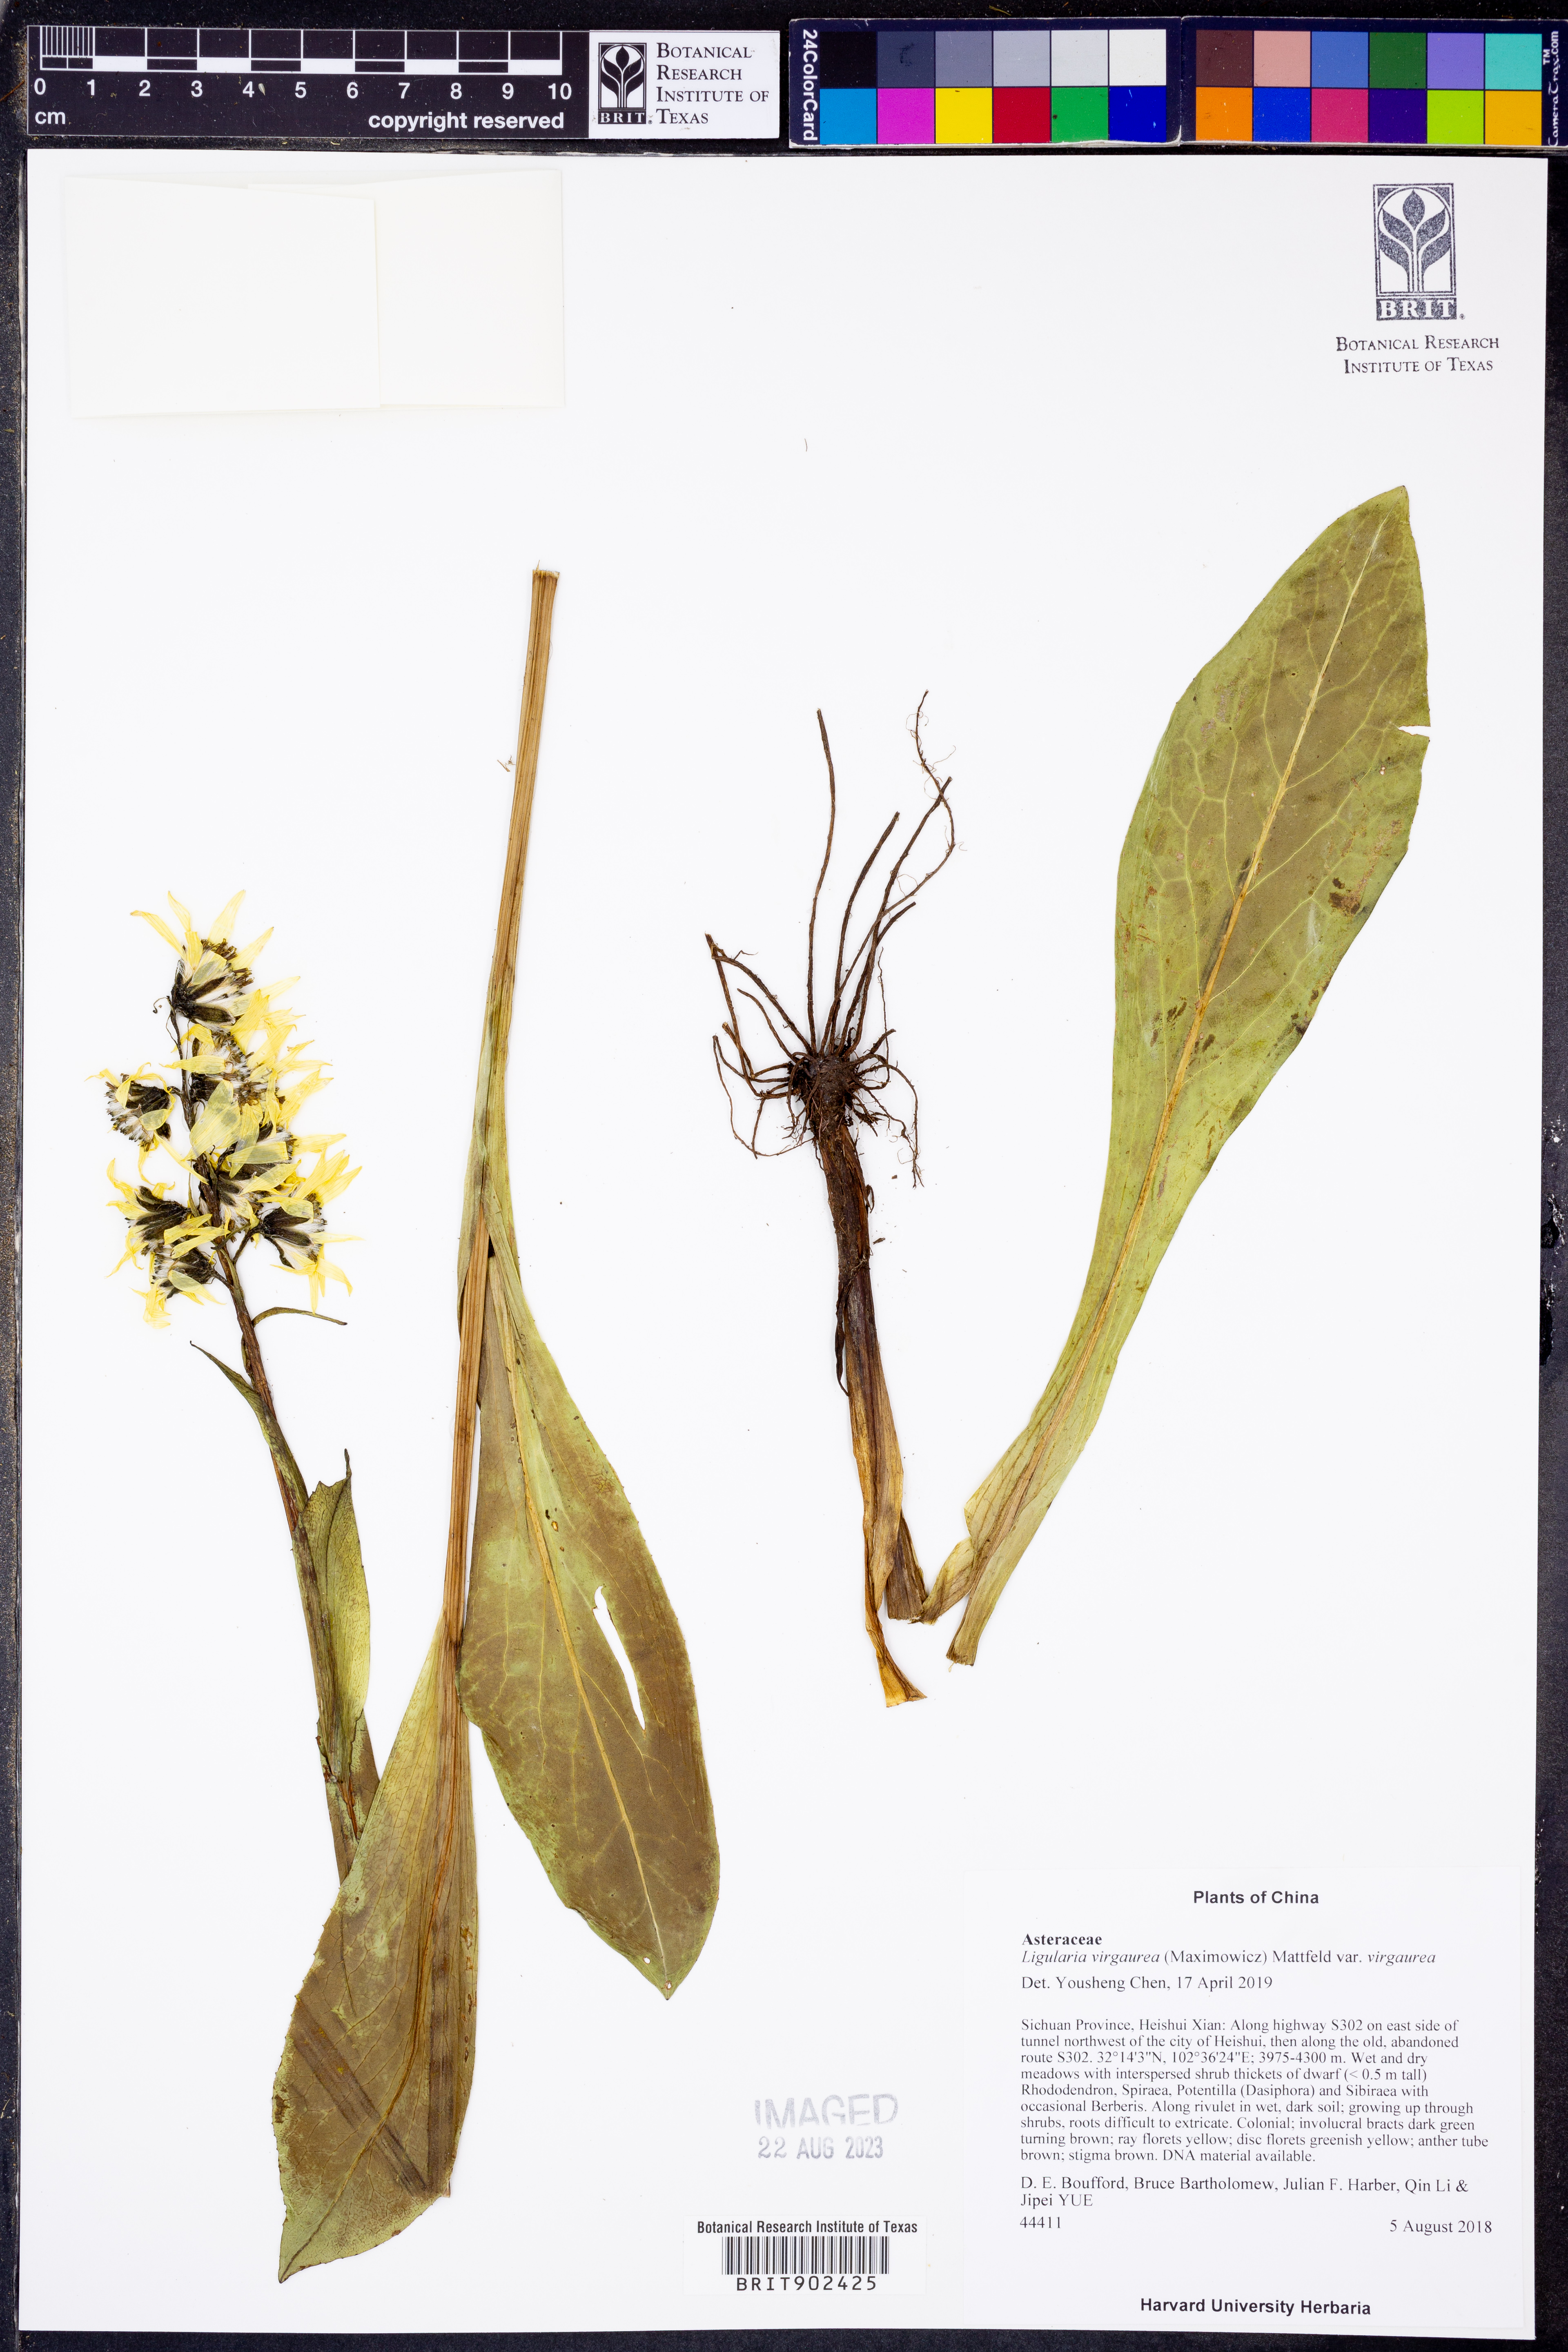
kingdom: Plantae
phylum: Tracheophyta
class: Magnoliopsida
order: Asterales
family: Asteraceae
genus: Ligularia
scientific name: Ligularia
